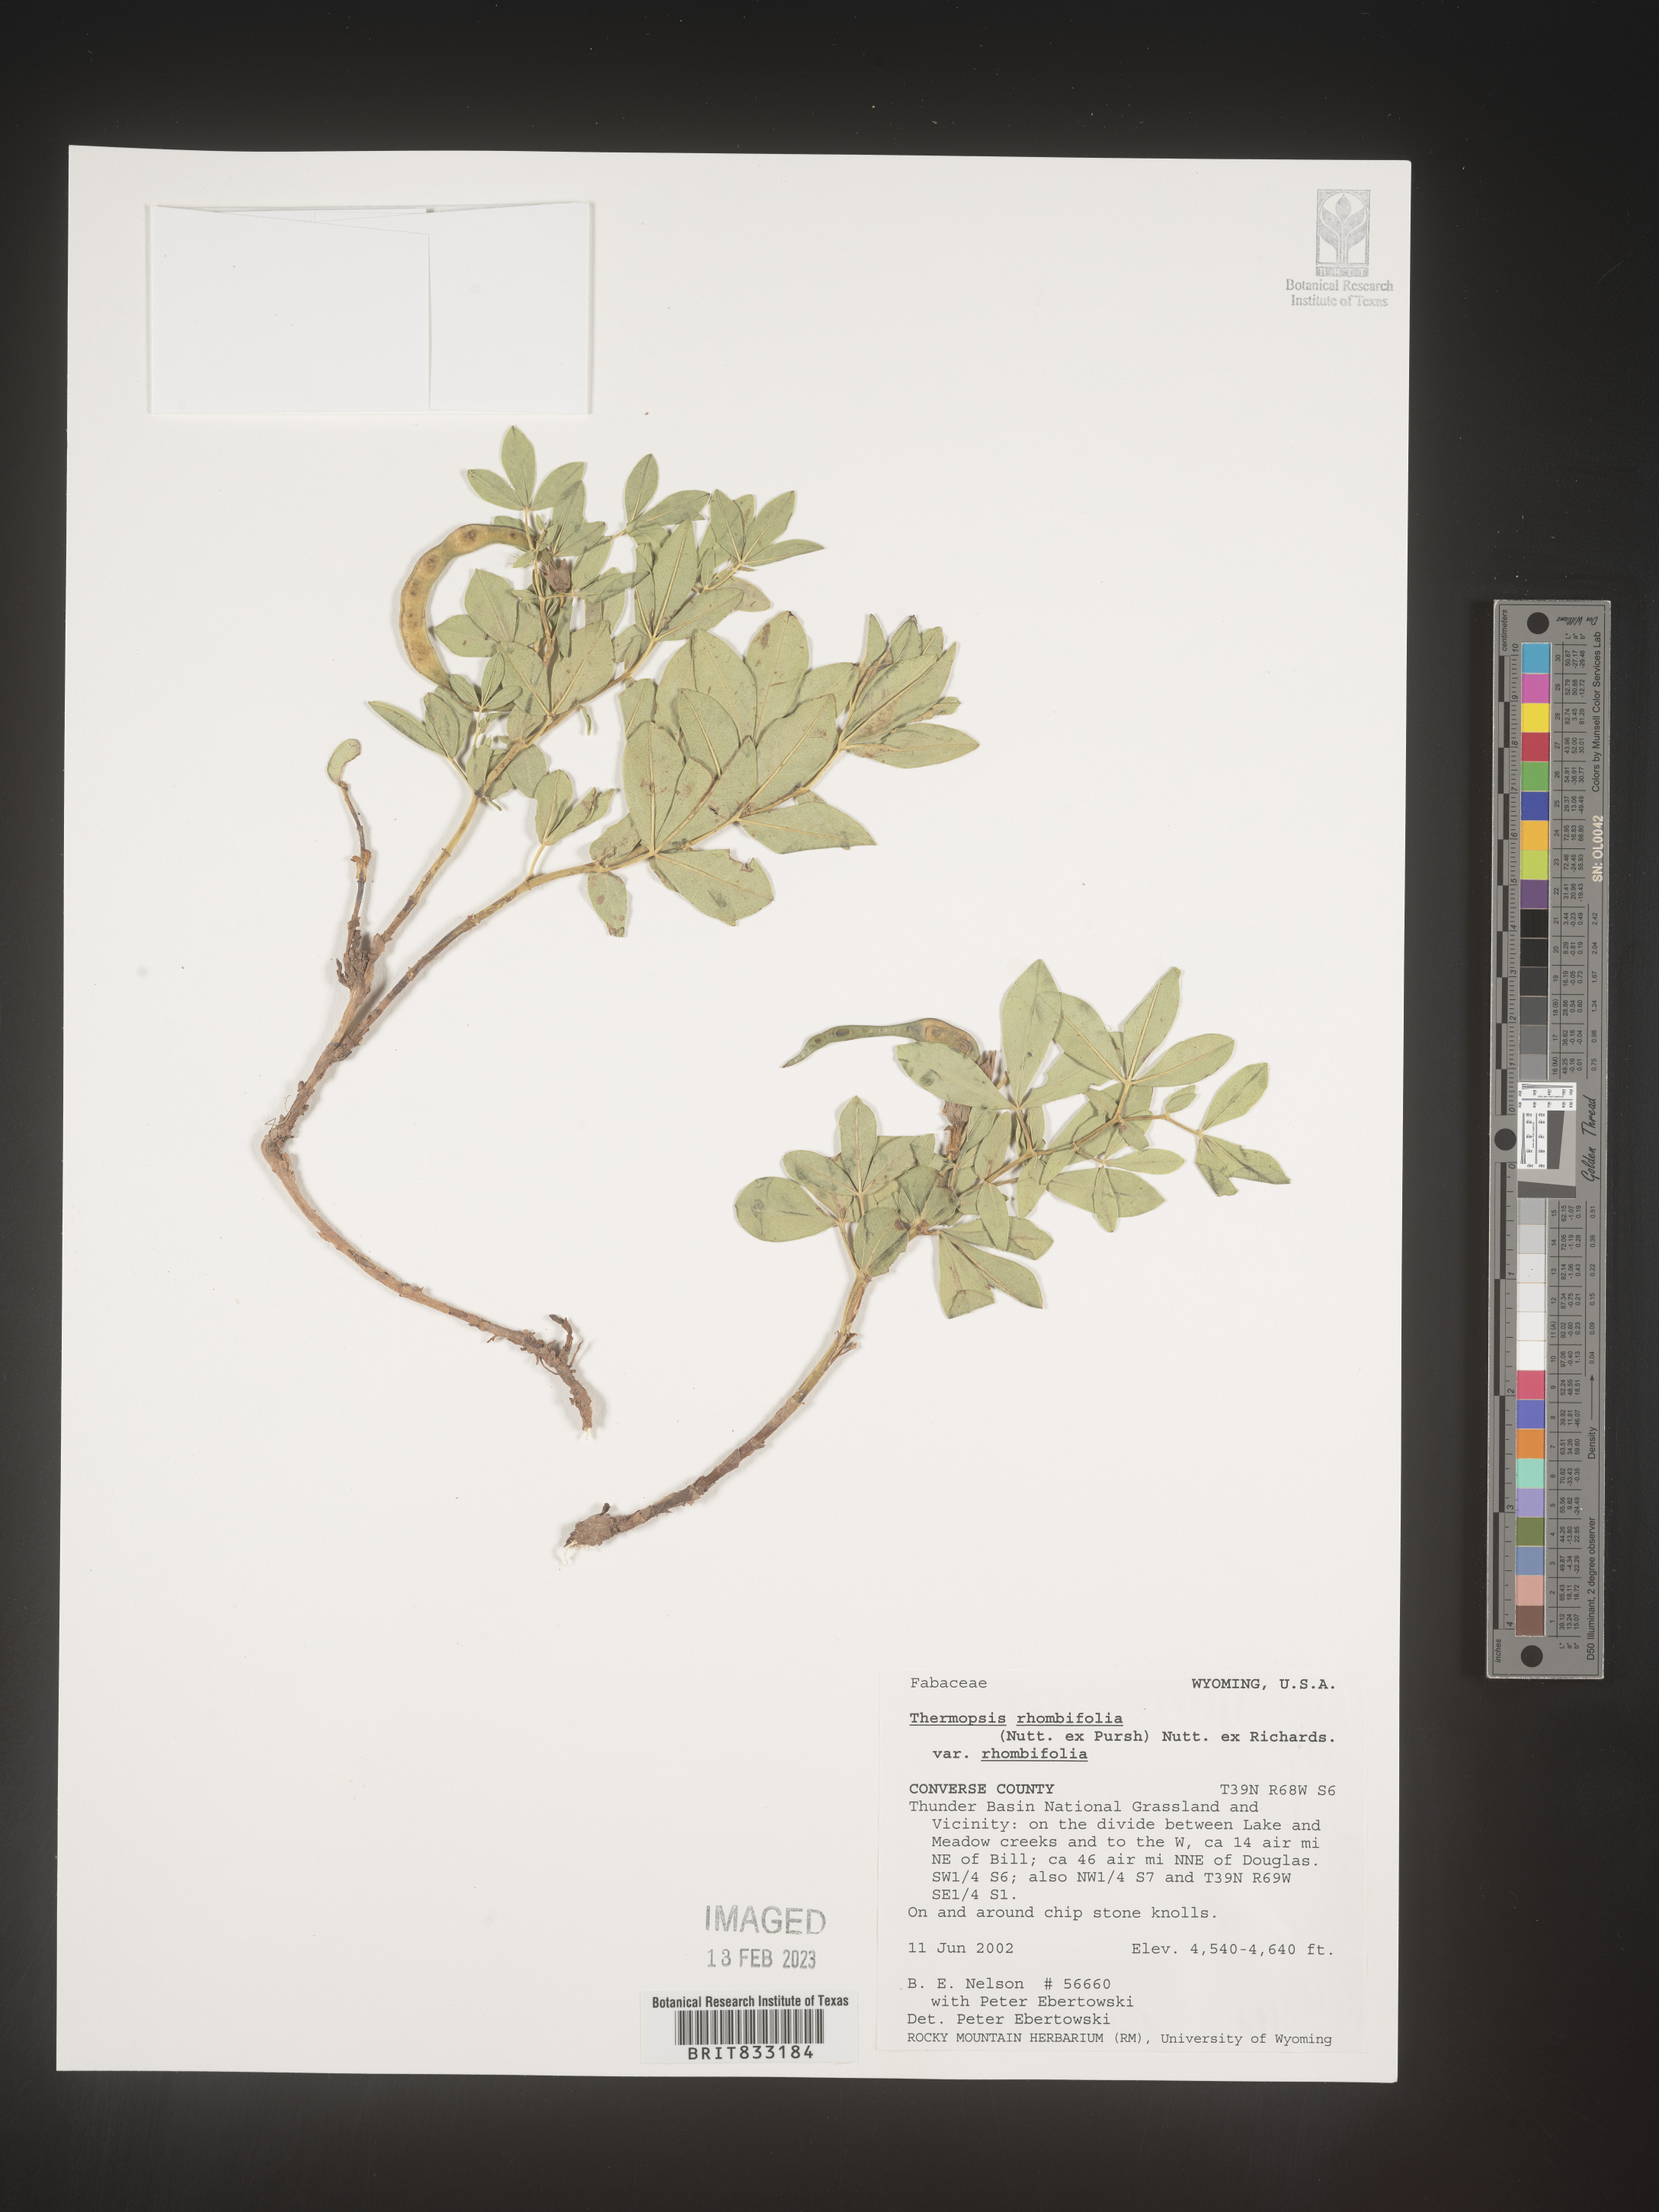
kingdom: Plantae
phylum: Tracheophyta
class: Magnoliopsida
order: Fabales
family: Fabaceae
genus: Thermopsis
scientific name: Thermopsis rhombifolia
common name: Circle-pod-pea
